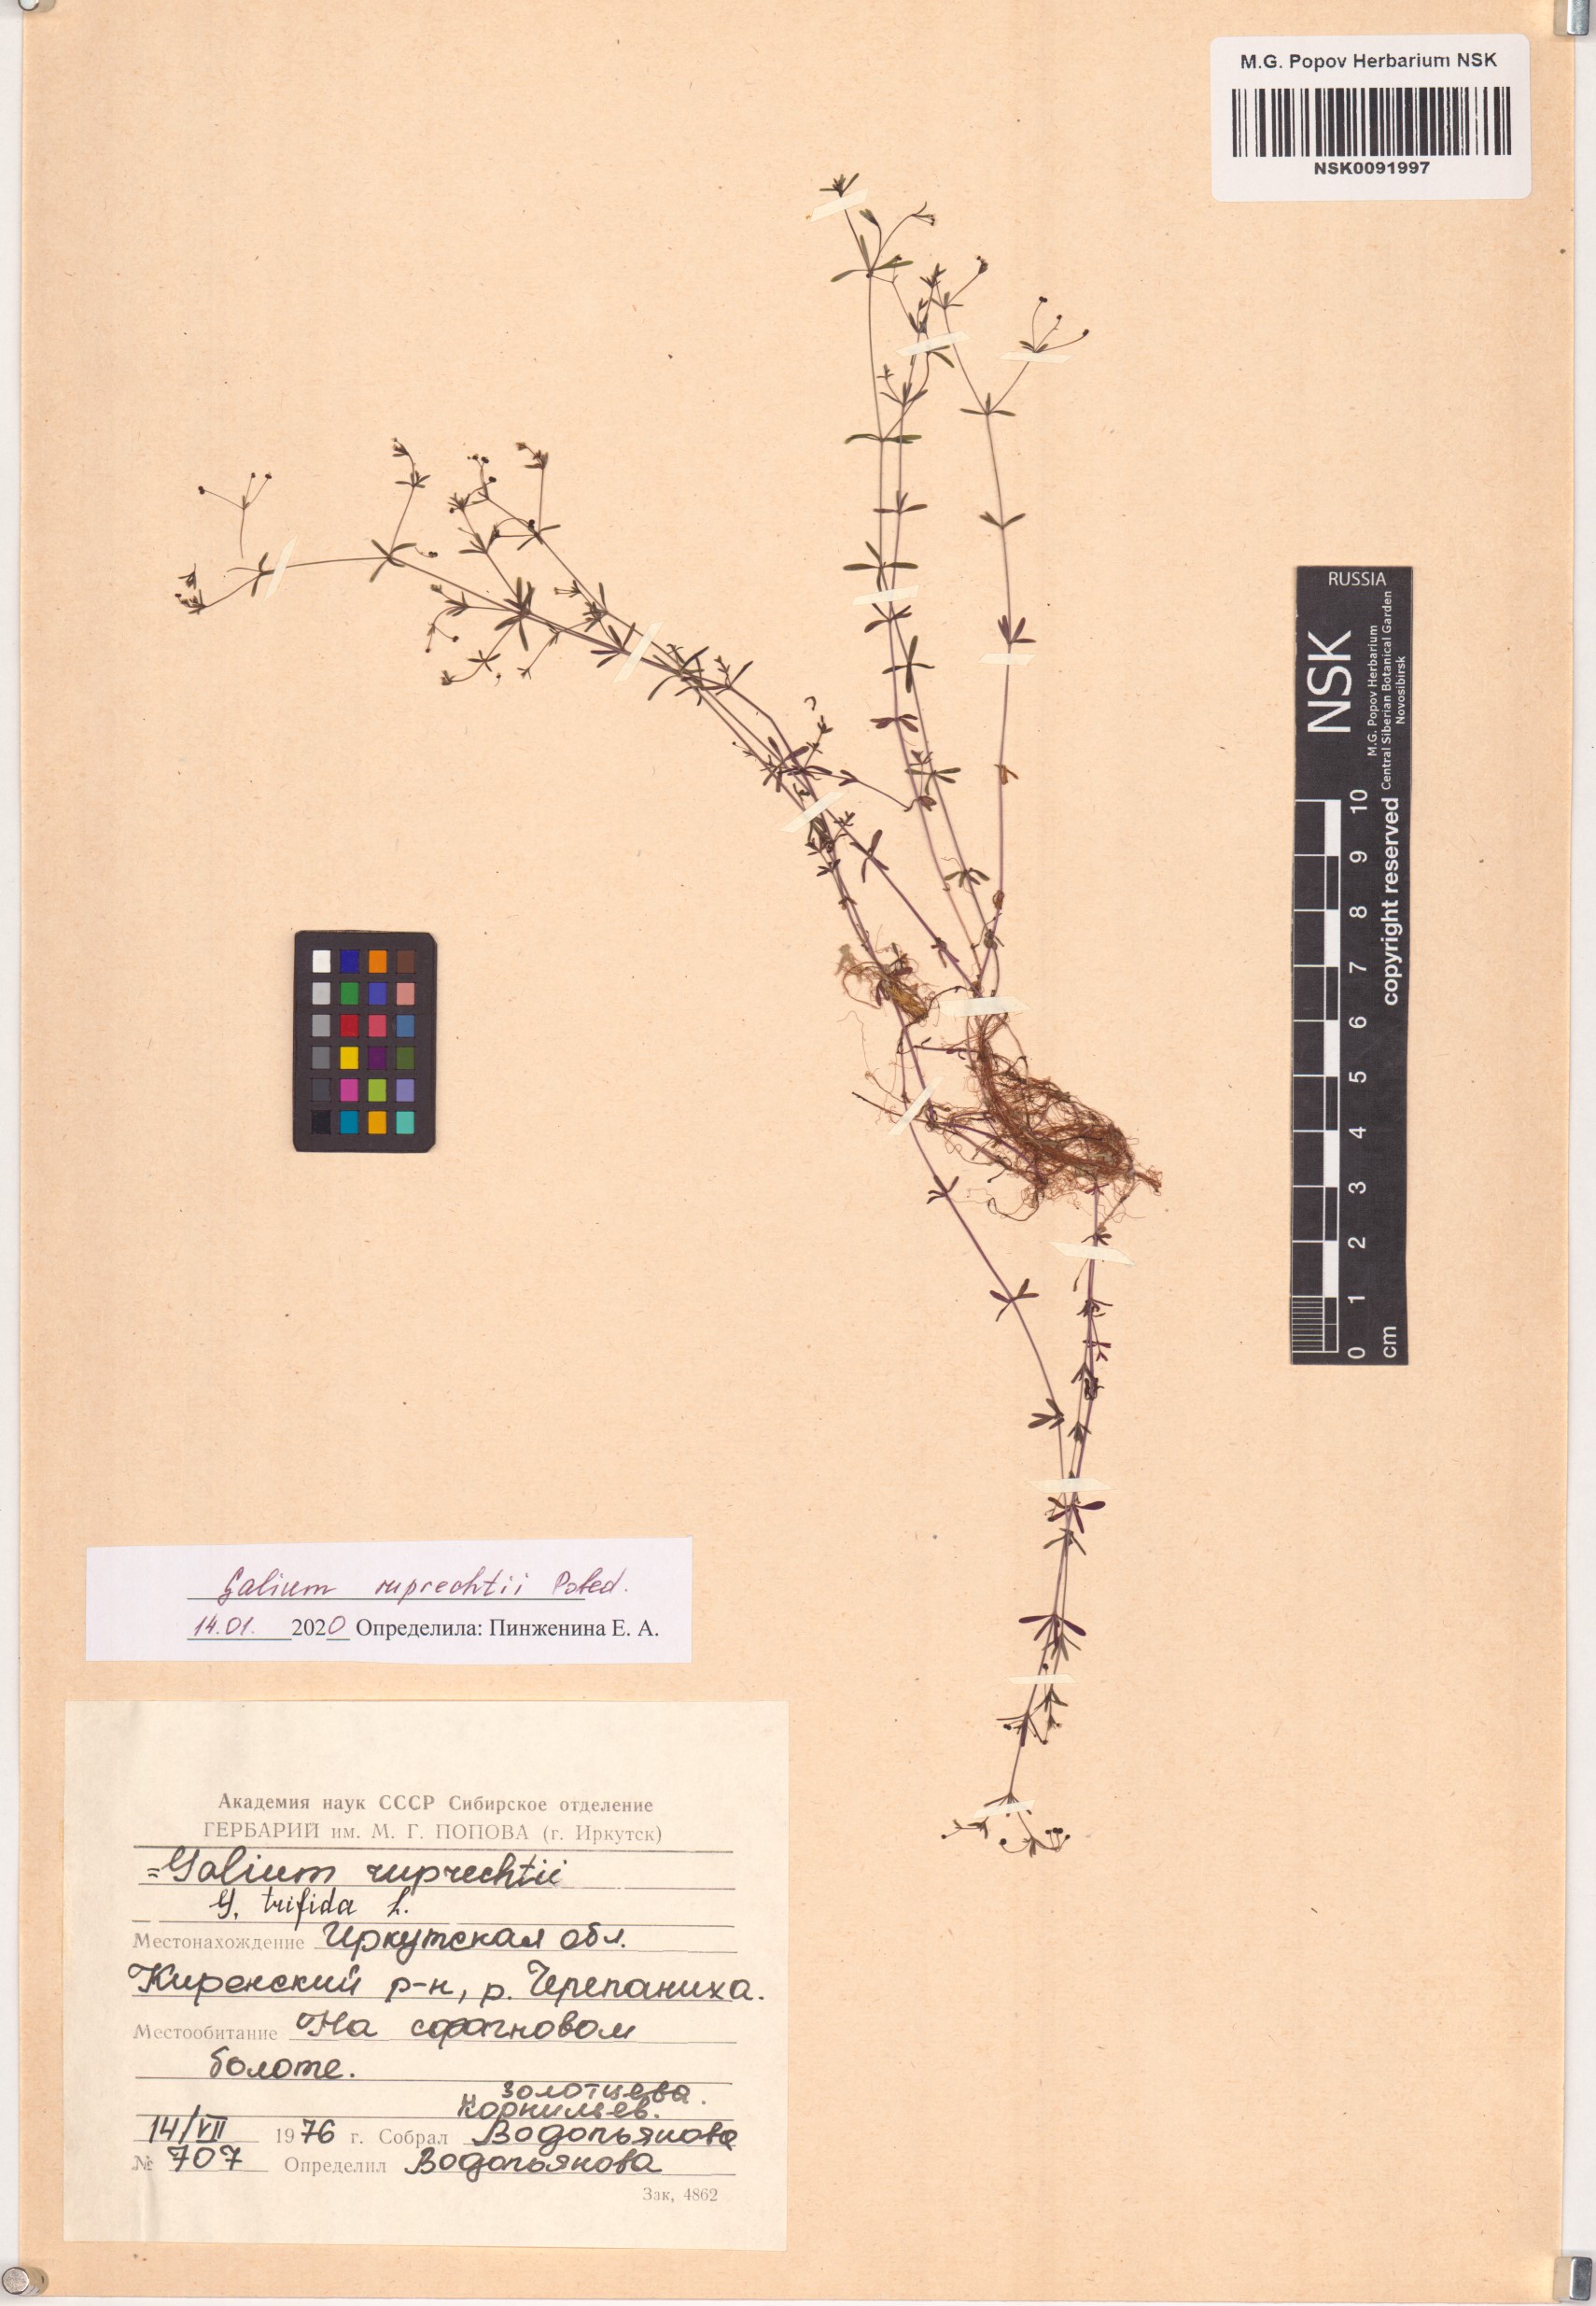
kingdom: Plantae
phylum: Tracheophyta
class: Magnoliopsida
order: Gentianales
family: Rubiaceae
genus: Galium
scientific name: Galium trifidum
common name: Small bedstraw
